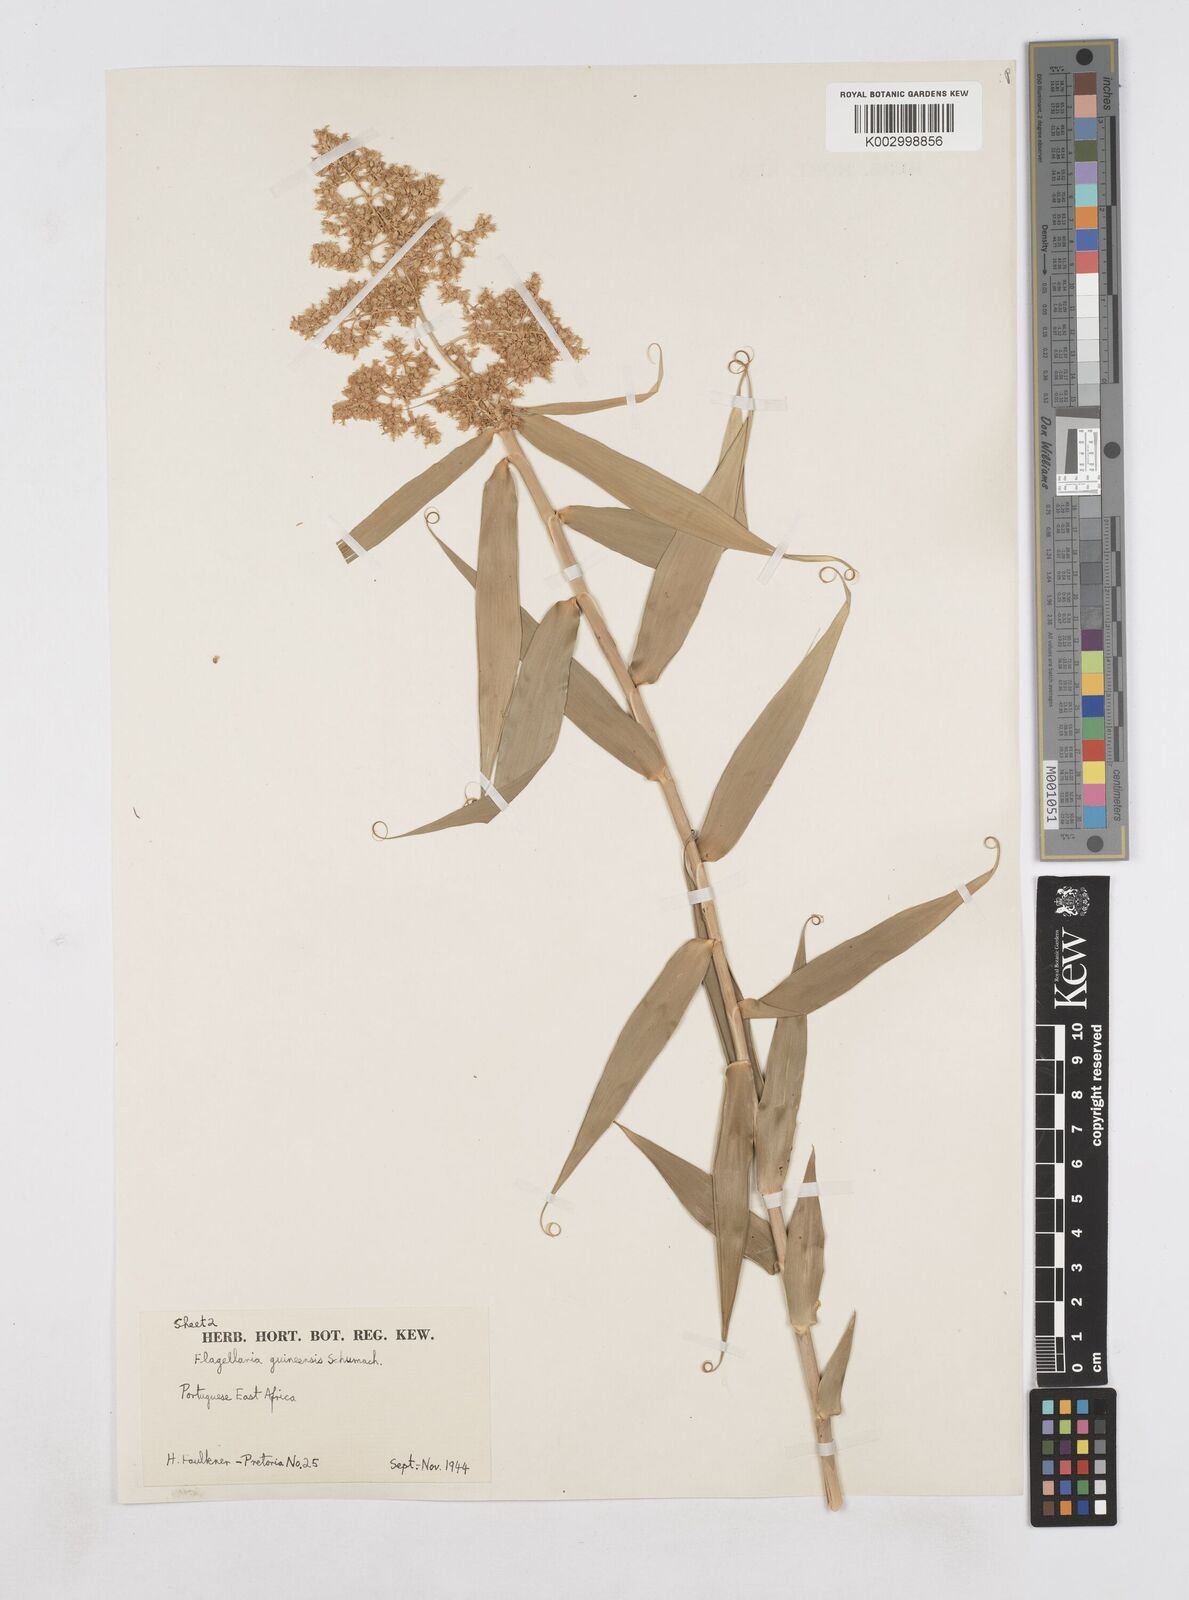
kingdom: Plantae
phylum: Tracheophyta
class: Liliopsida
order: Poales
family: Flagellariaceae
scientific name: Flagellariaceae
